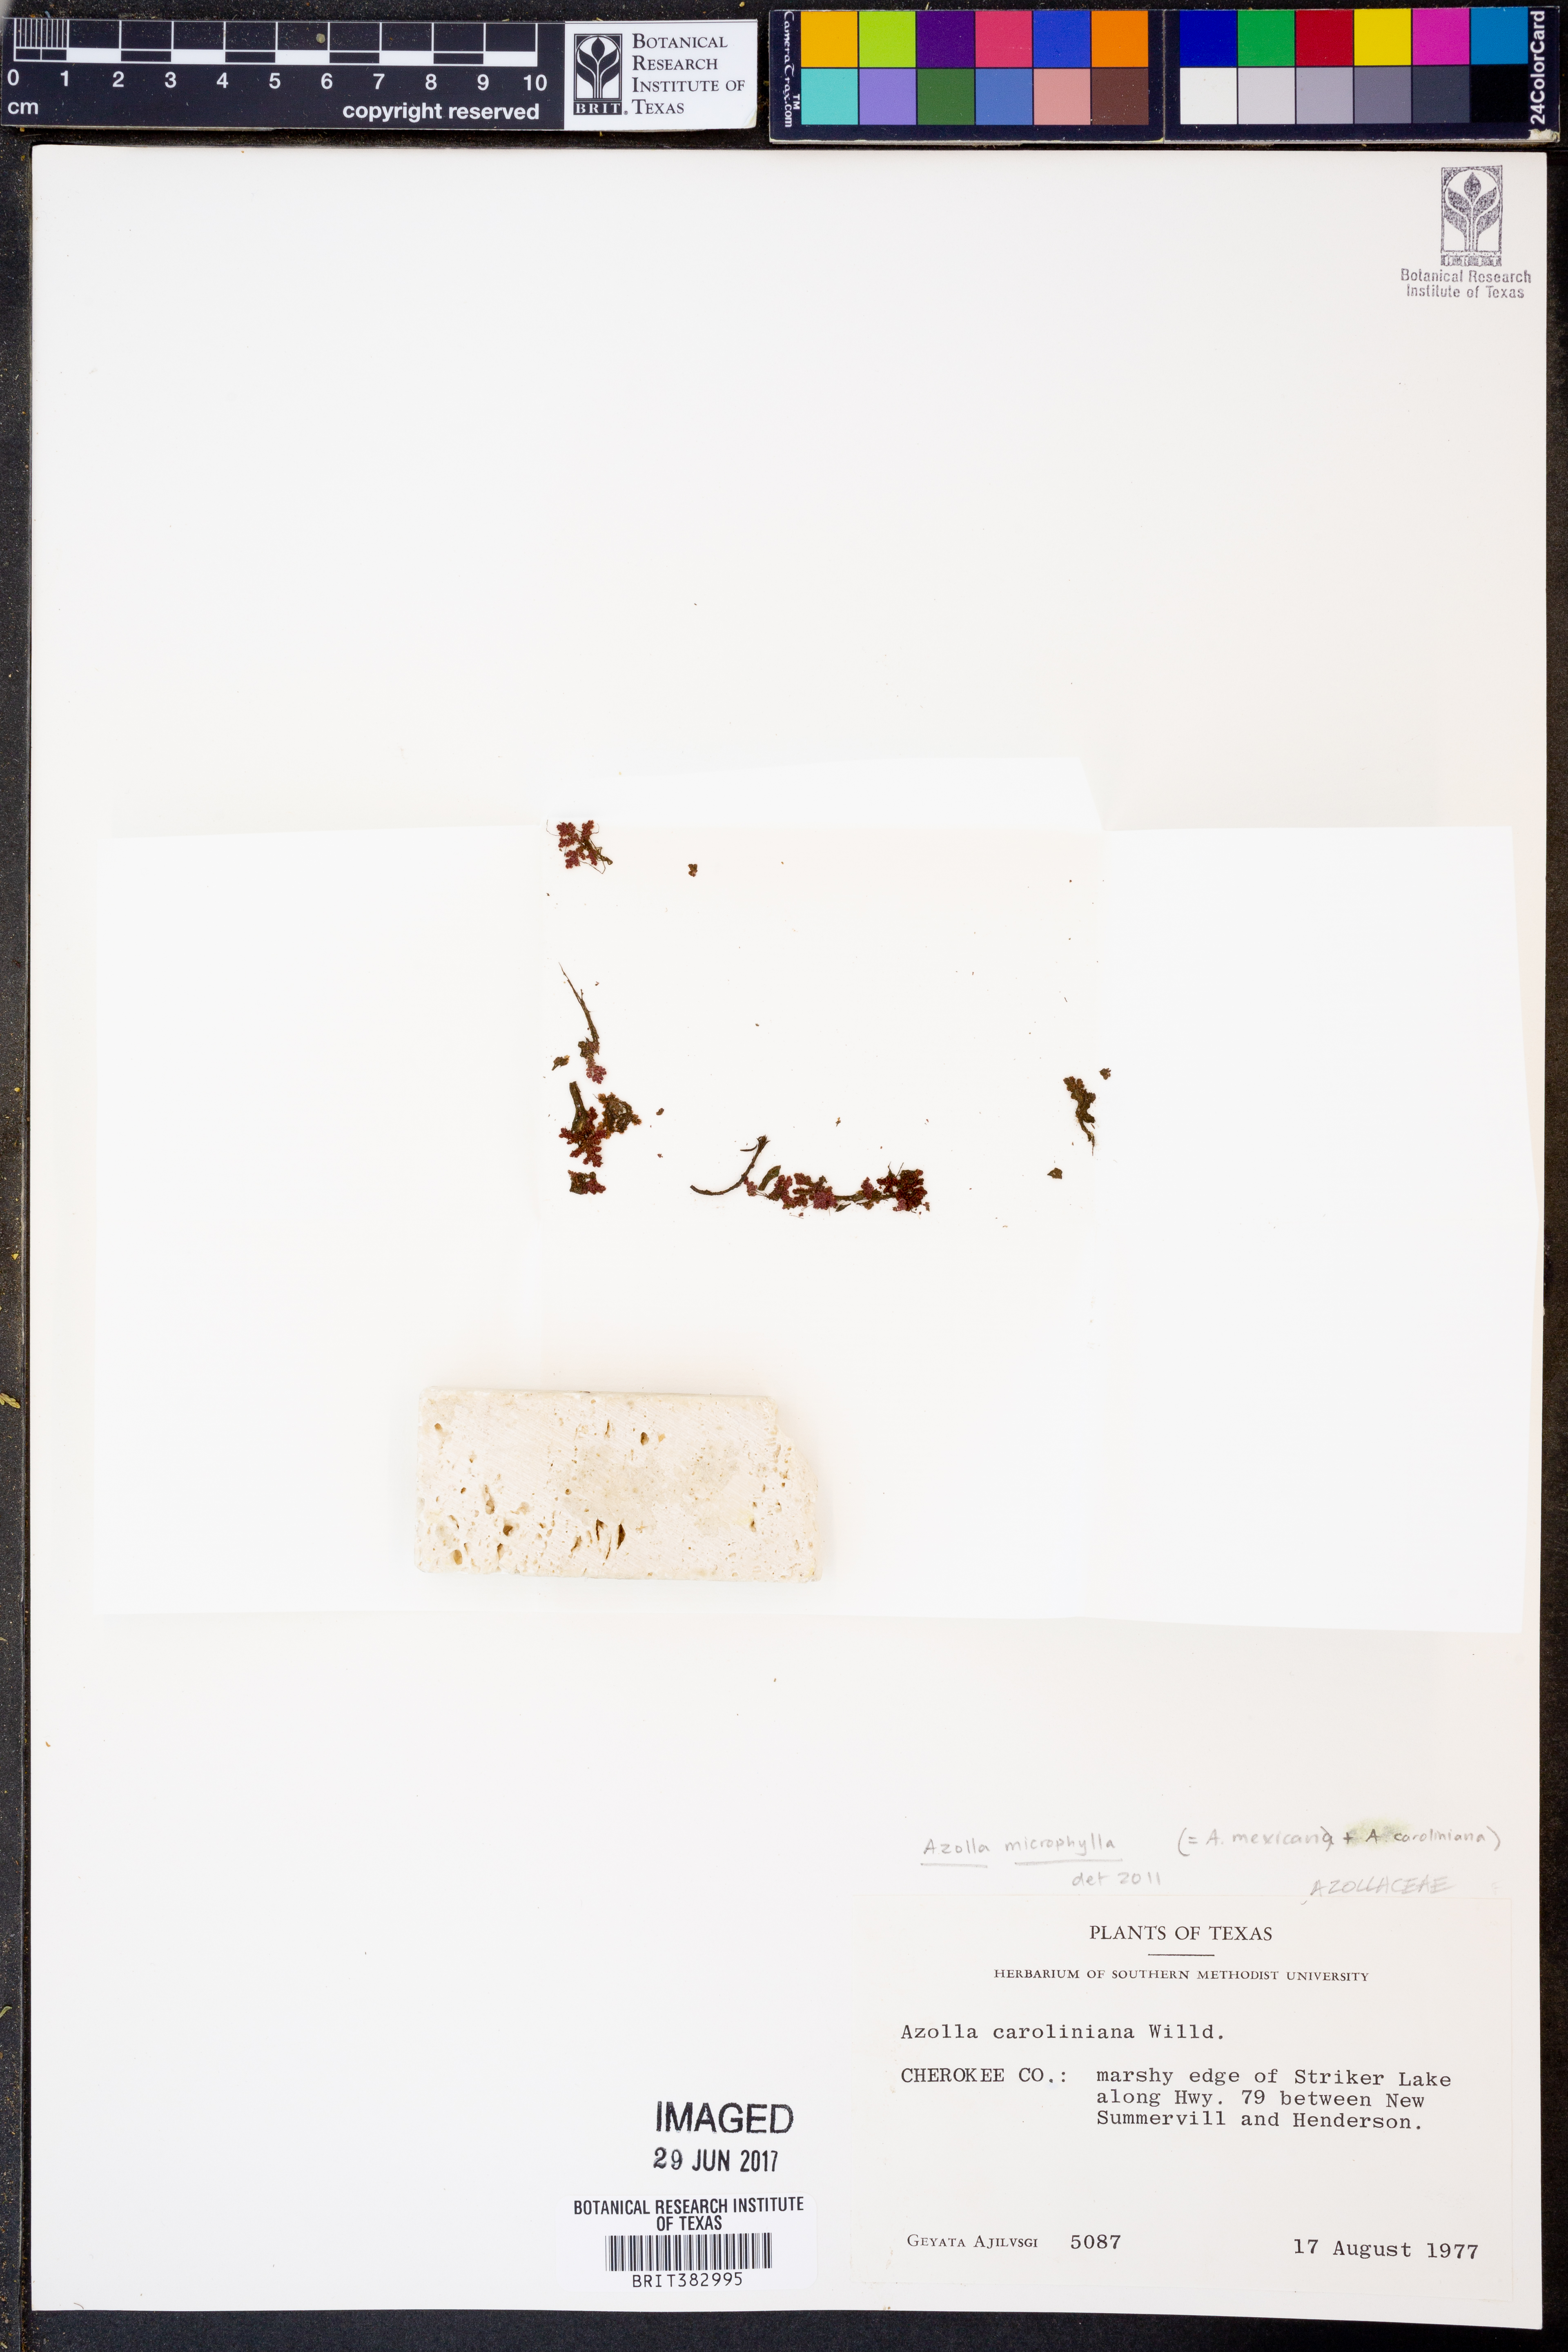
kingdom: Plantae
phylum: Tracheophyta
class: Polypodiopsida
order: Salviniales
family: Salviniaceae
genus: Azolla
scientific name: Azolla caroliniana
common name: Carolina mosquitofern
